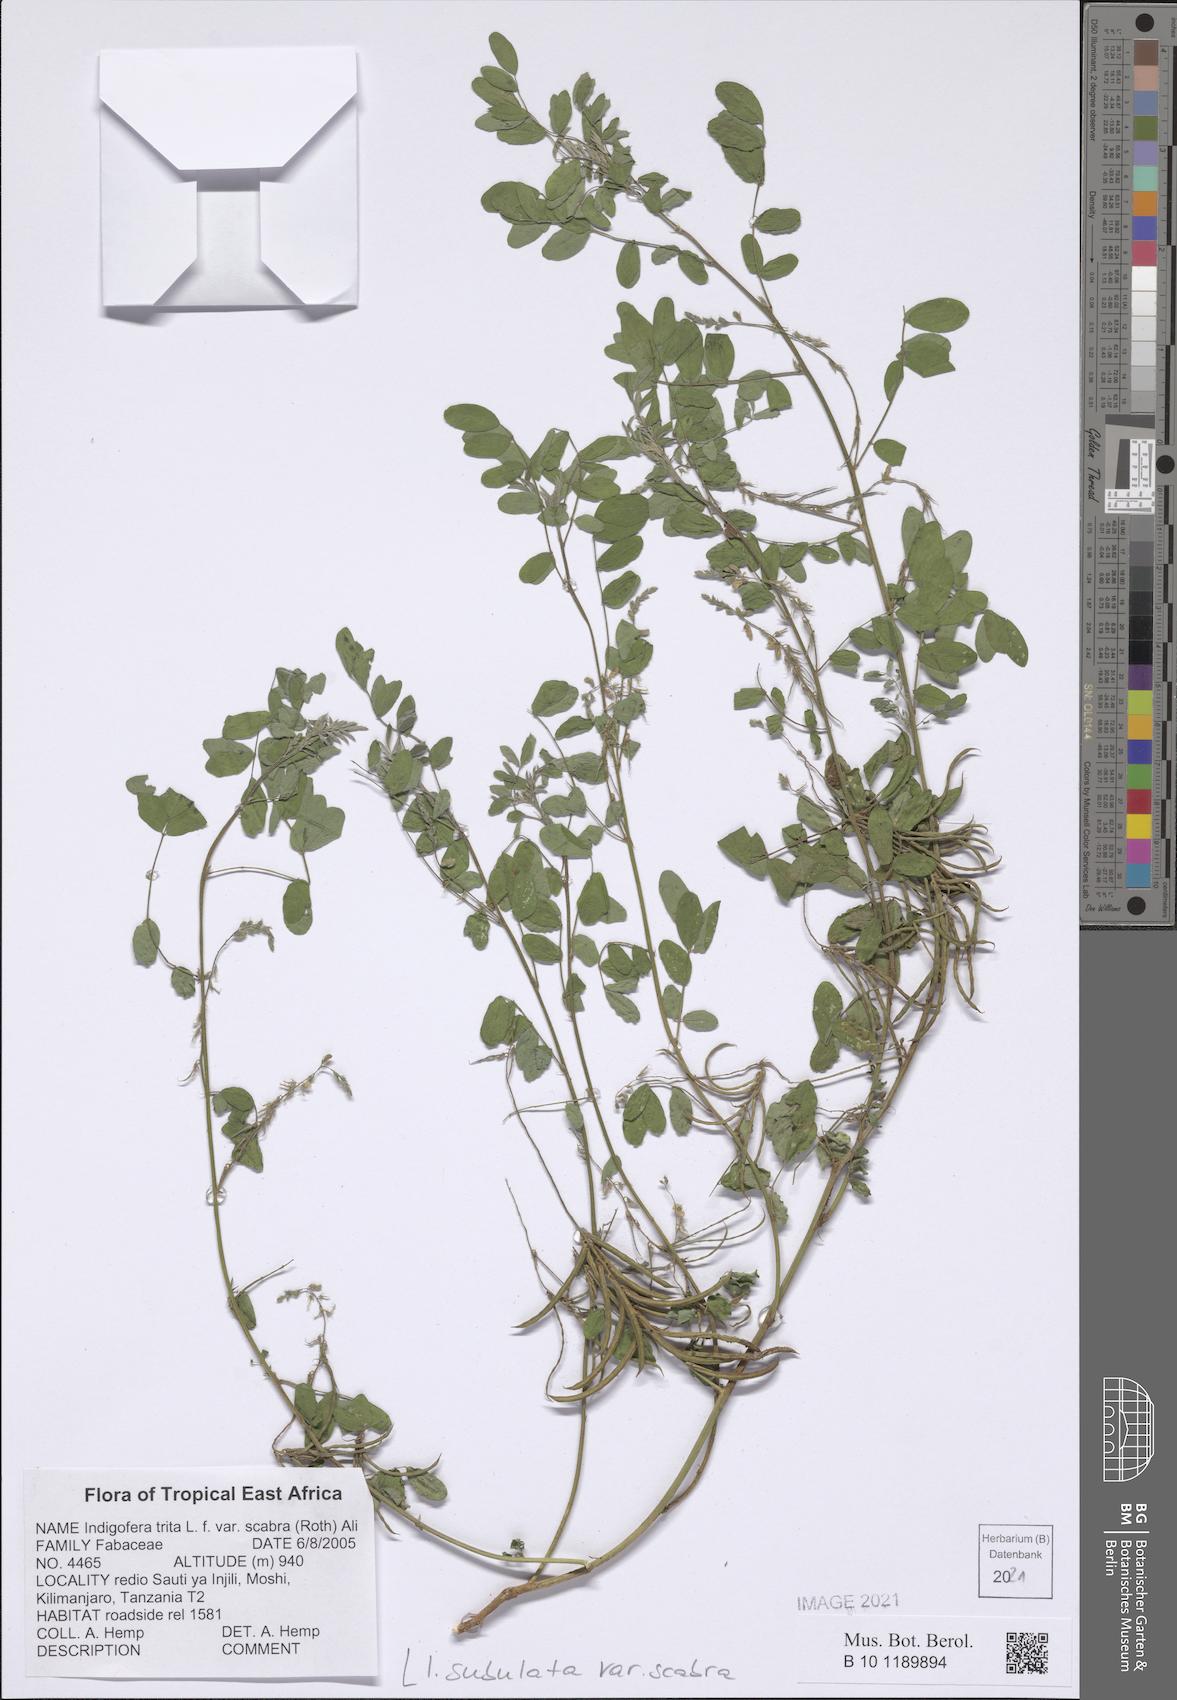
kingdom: Plantae
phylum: Tracheophyta
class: Magnoliopsida
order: Fabales
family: Fabaceae
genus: Indigofera
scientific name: Indigofera subulata
